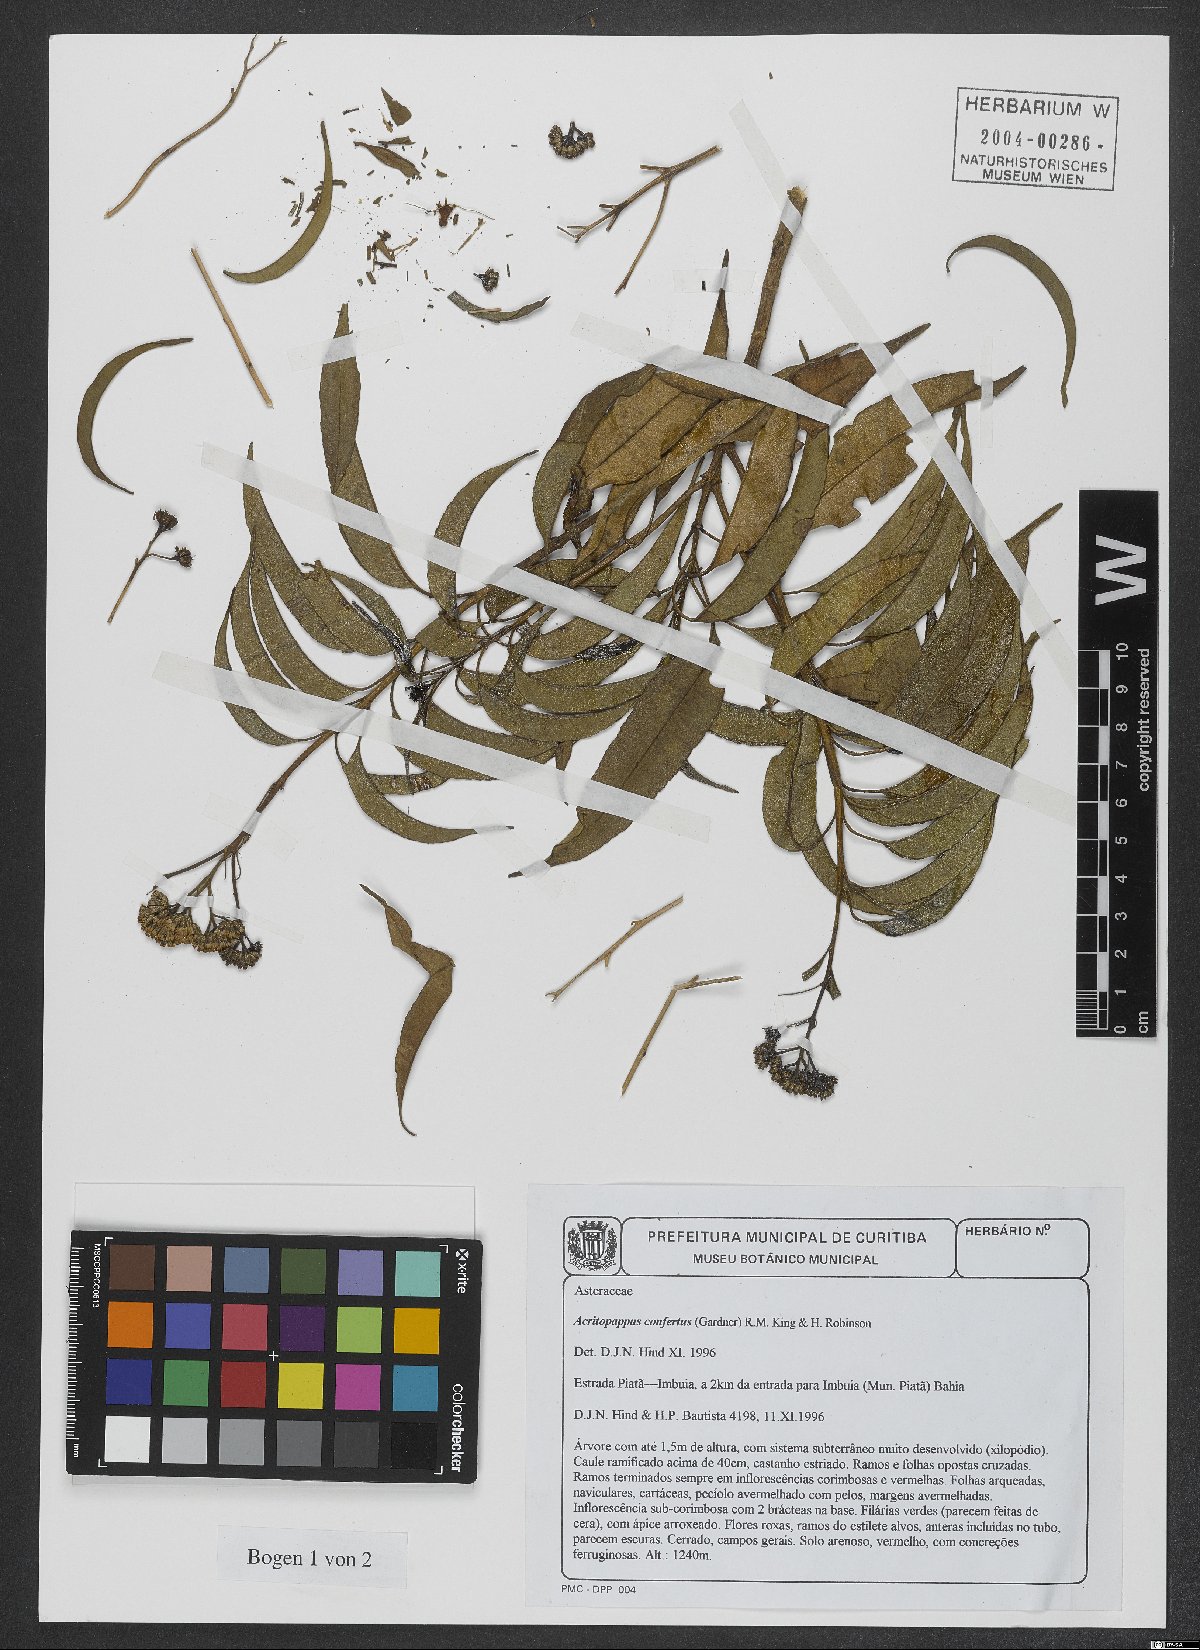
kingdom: Plantae
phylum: Tracheophyta
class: Magnoliopsida
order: Asterales
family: Asteraceae
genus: Acritopappus
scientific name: Acritopappus confertus
